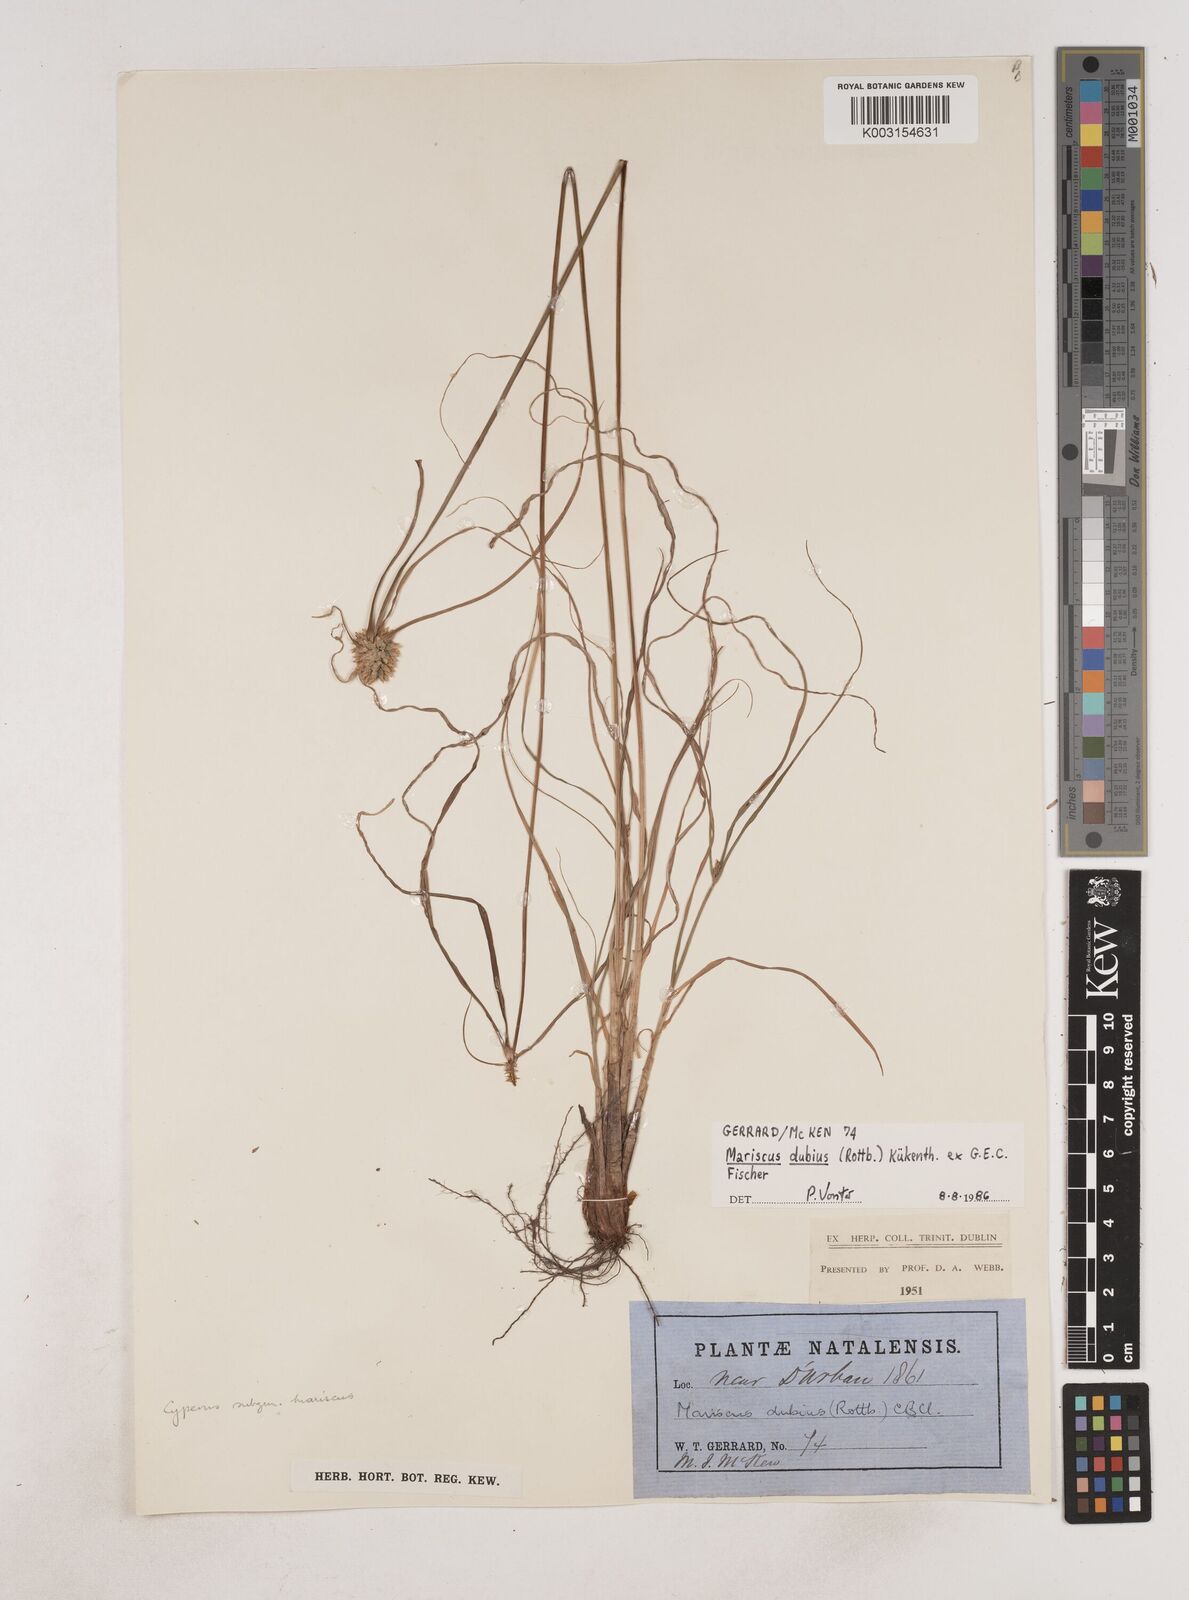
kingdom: Plantae
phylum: Tracheophyta
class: Liliopsida
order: Poales
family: Cyperaceae
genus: Cyperus
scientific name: Cyperus dubius
